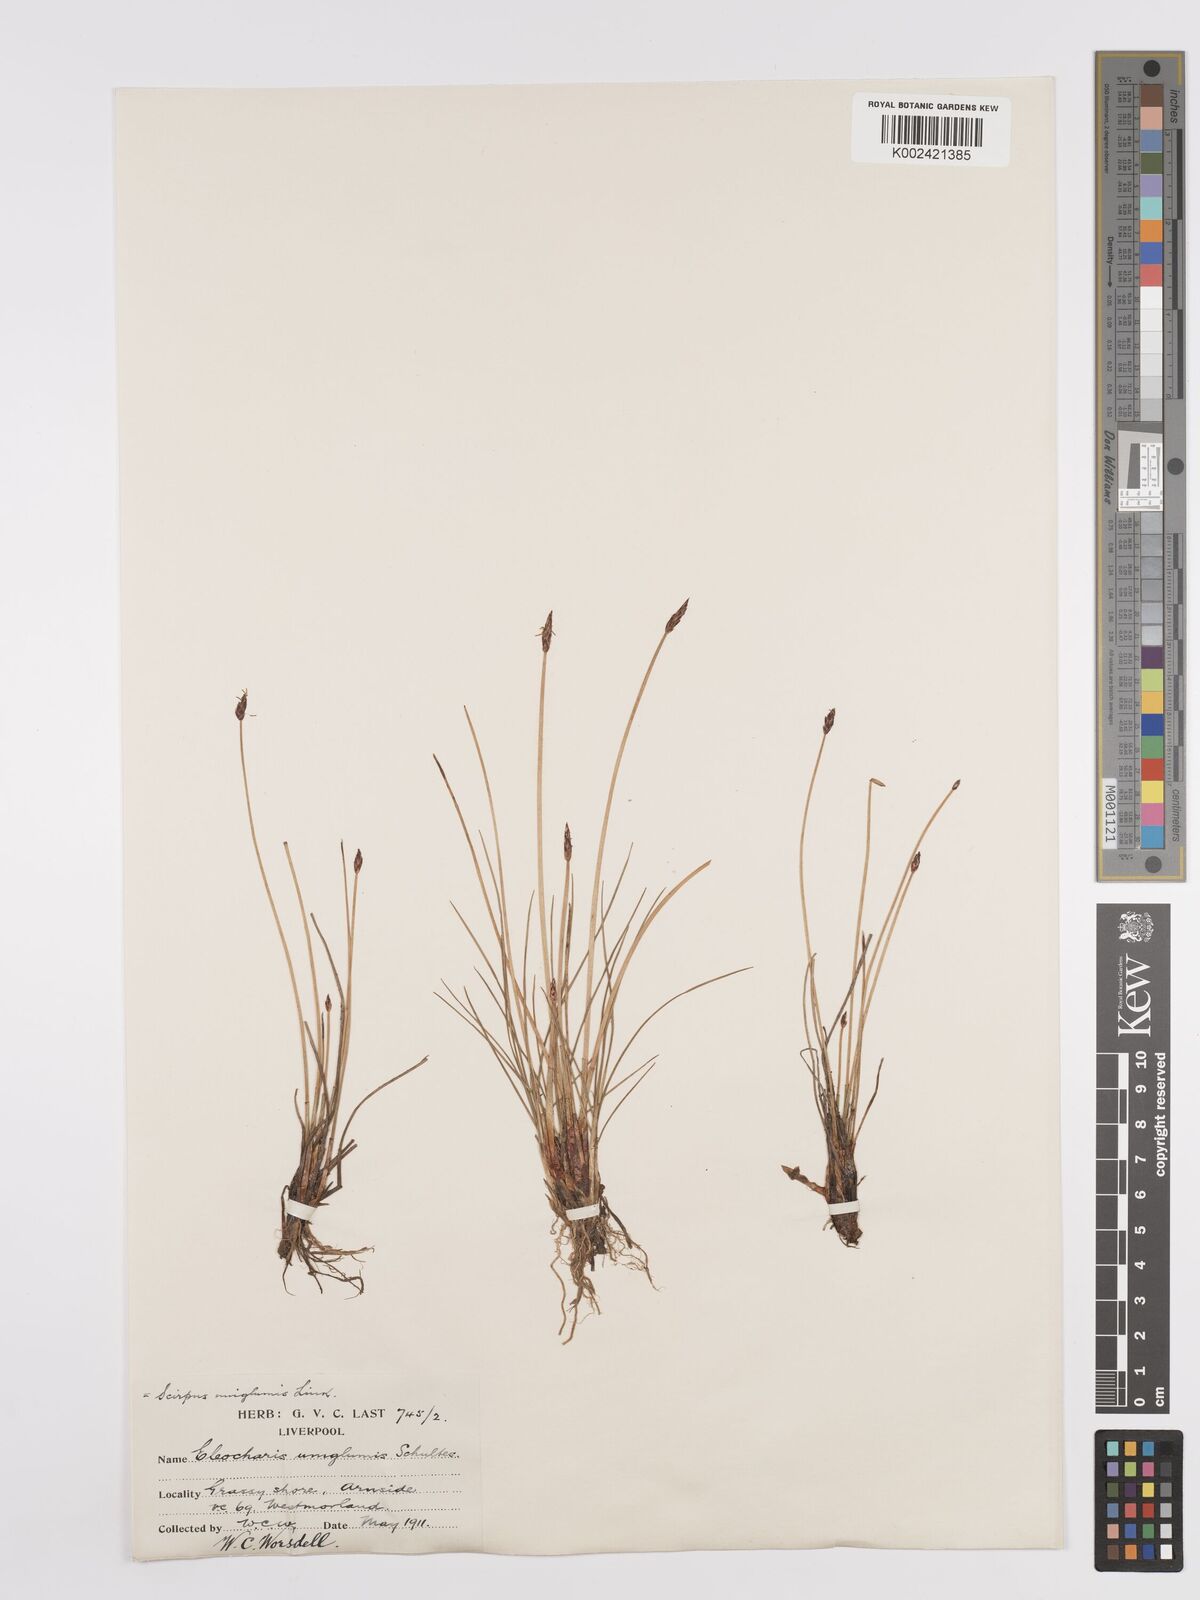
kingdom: Plantae
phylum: Tracheophyta
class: Liliopsida
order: Poales
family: Cyperaceae
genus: Eleocharis
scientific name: Eleocharis uniglumis
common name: Slender spike-rush
